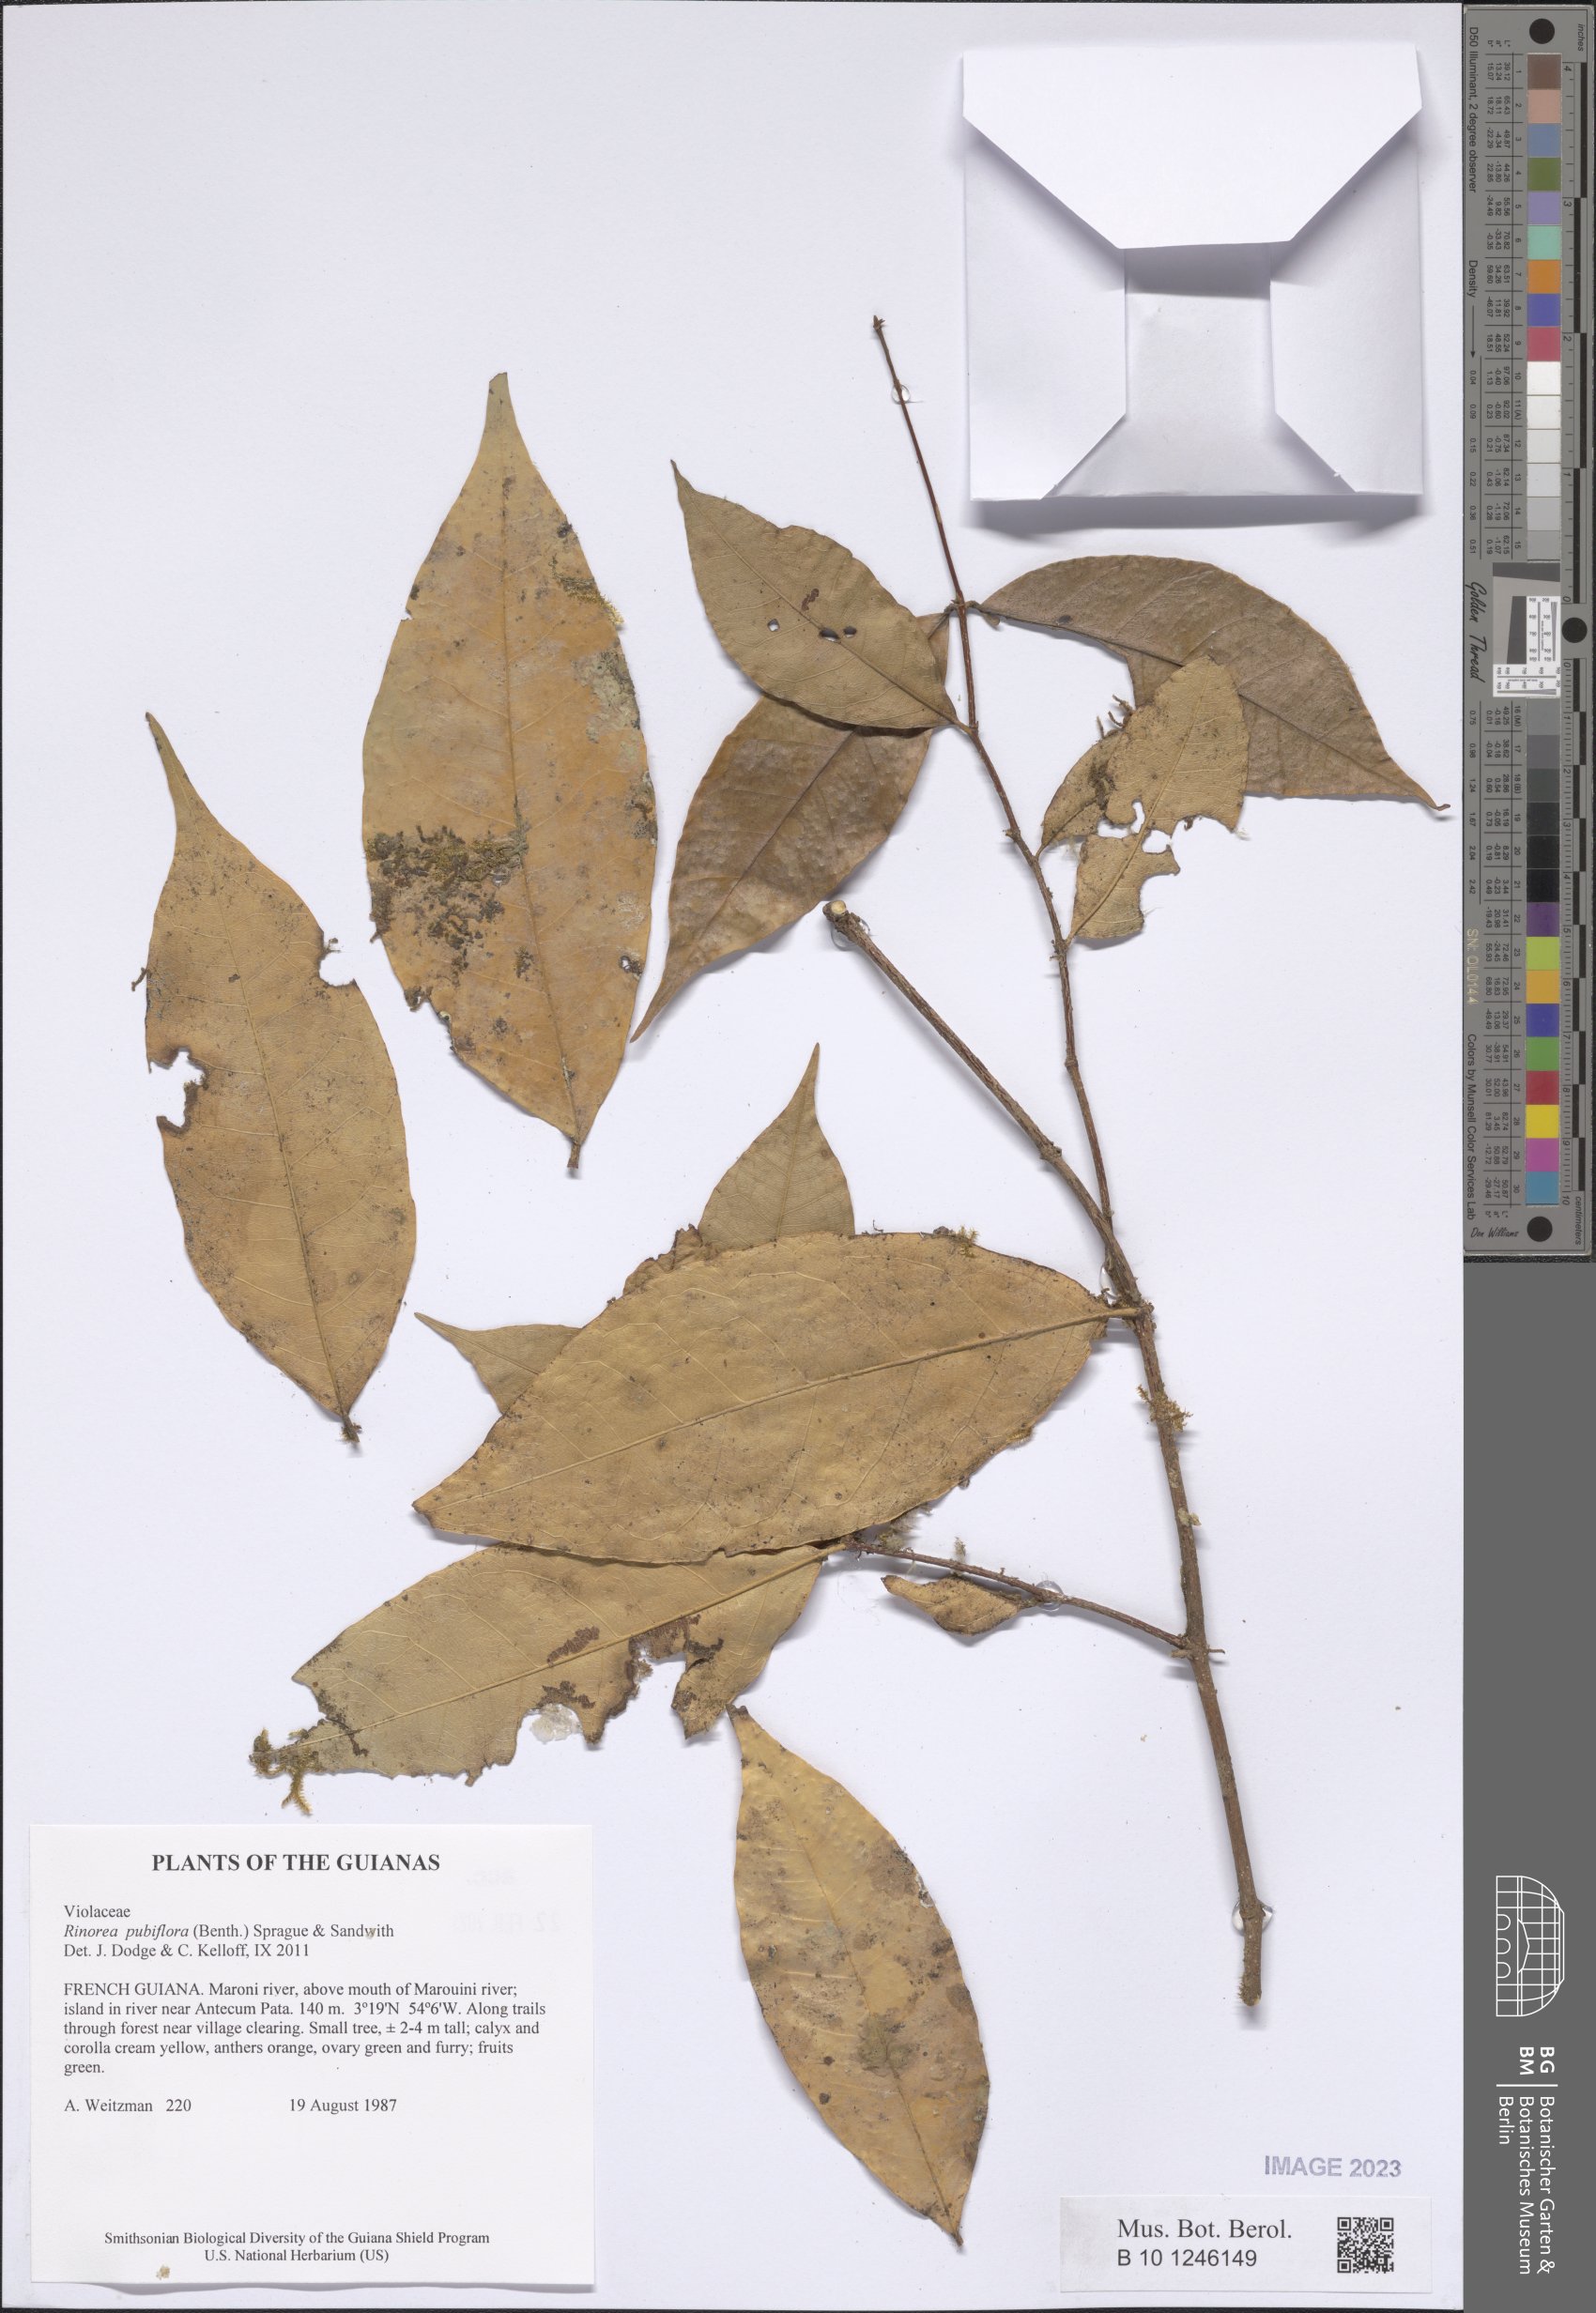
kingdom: Plantae
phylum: Tracheophyta
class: Magnoliopsida
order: Malpighiales
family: Violaceae
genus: Rinorea
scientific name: Rinorea pubiflora
